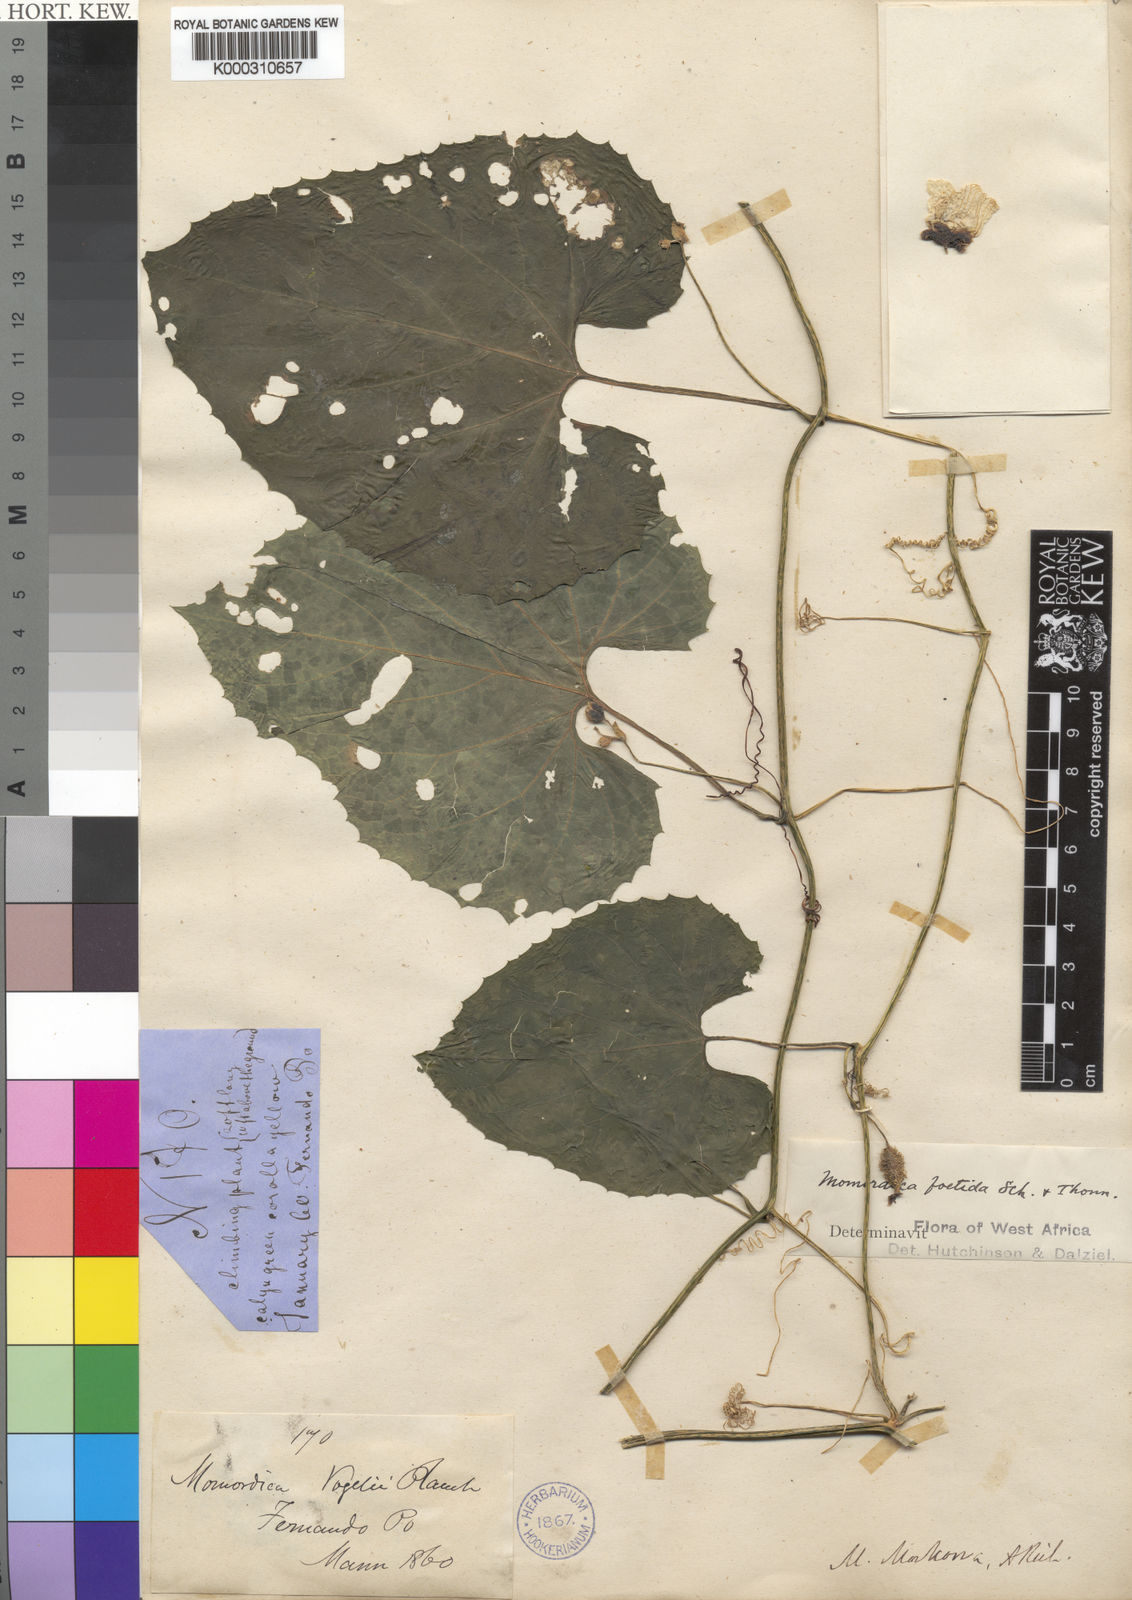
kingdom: Plantae
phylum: Tracheophyta
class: Magnoliopsida
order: Cucurbitales
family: Cucurbitaceae
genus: Momordica
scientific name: Momordica foetida
